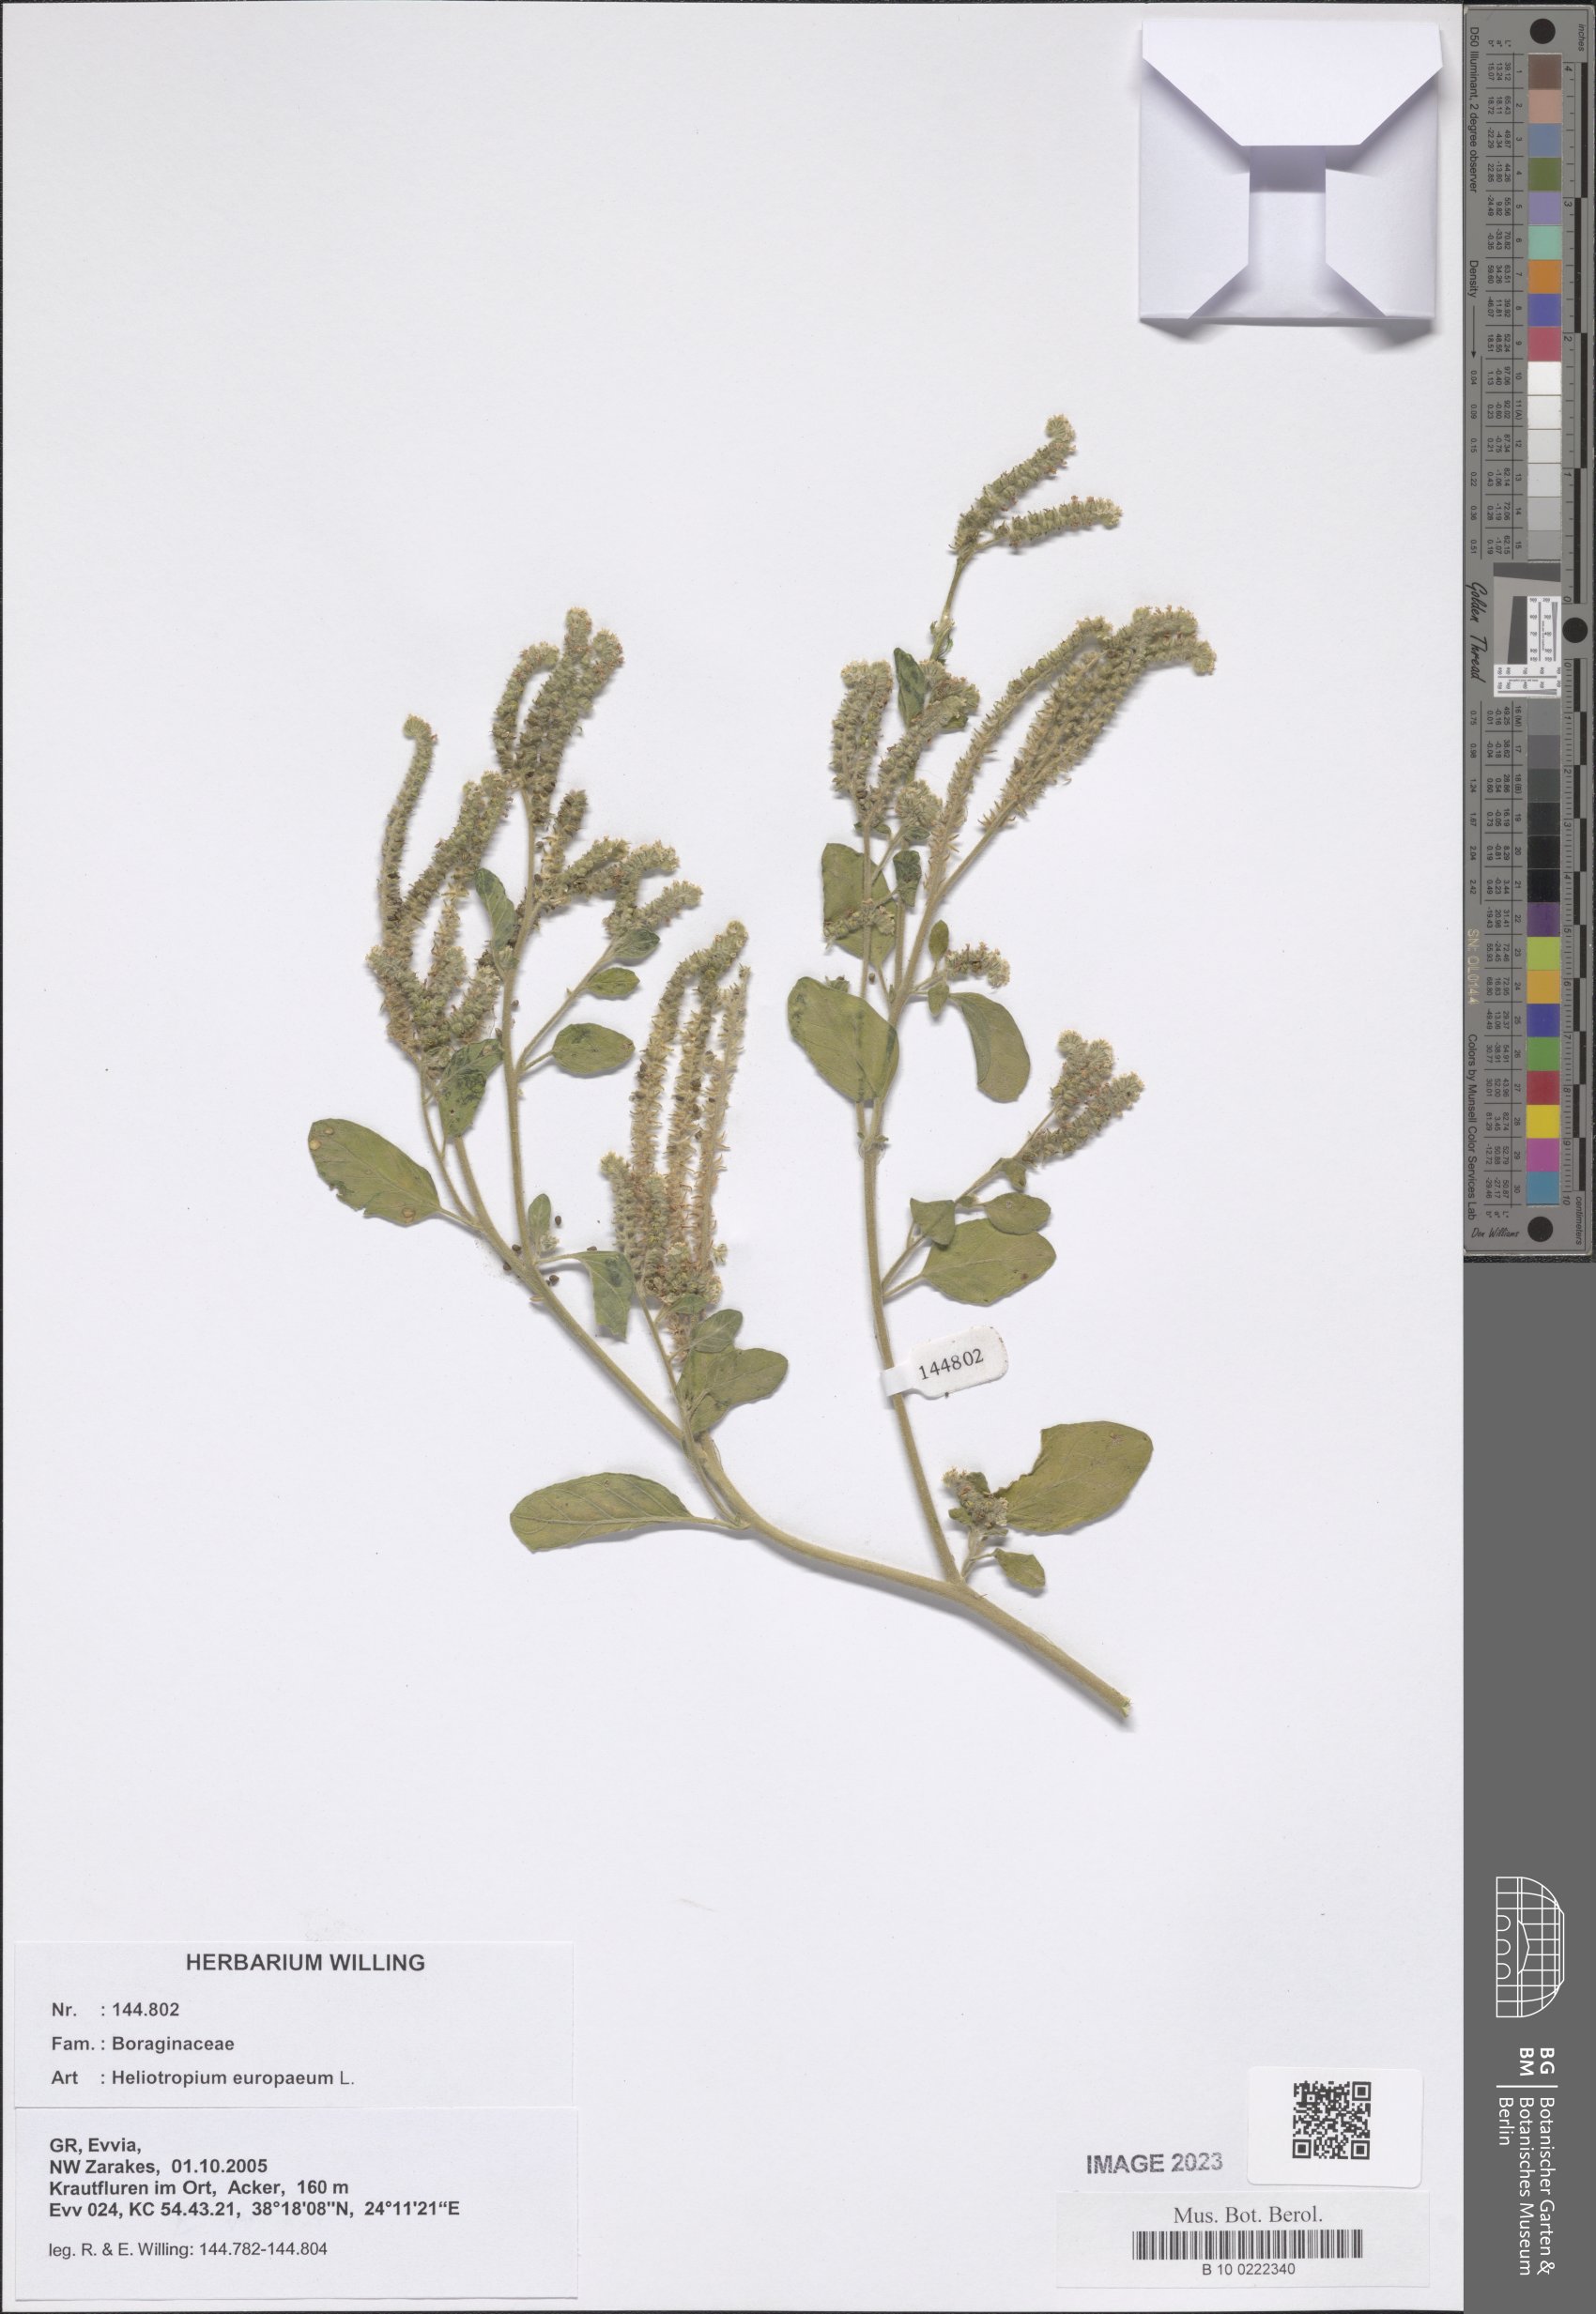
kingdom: Plantae
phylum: Tracheophyta
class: Magnoliopsida
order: Boraginales
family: Heliotropiaceae
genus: Heliotropium
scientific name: Heliotropium europaeum
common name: European heliotrope
